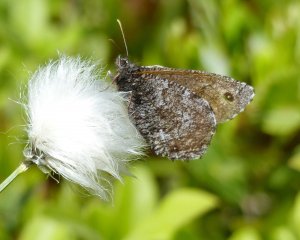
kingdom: Animalia
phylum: Arthropoda
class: Insecta
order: Lepidoptera
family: Nymphalidae
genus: Oeneis
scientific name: Oeneis jutta
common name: Jutta Arctic
